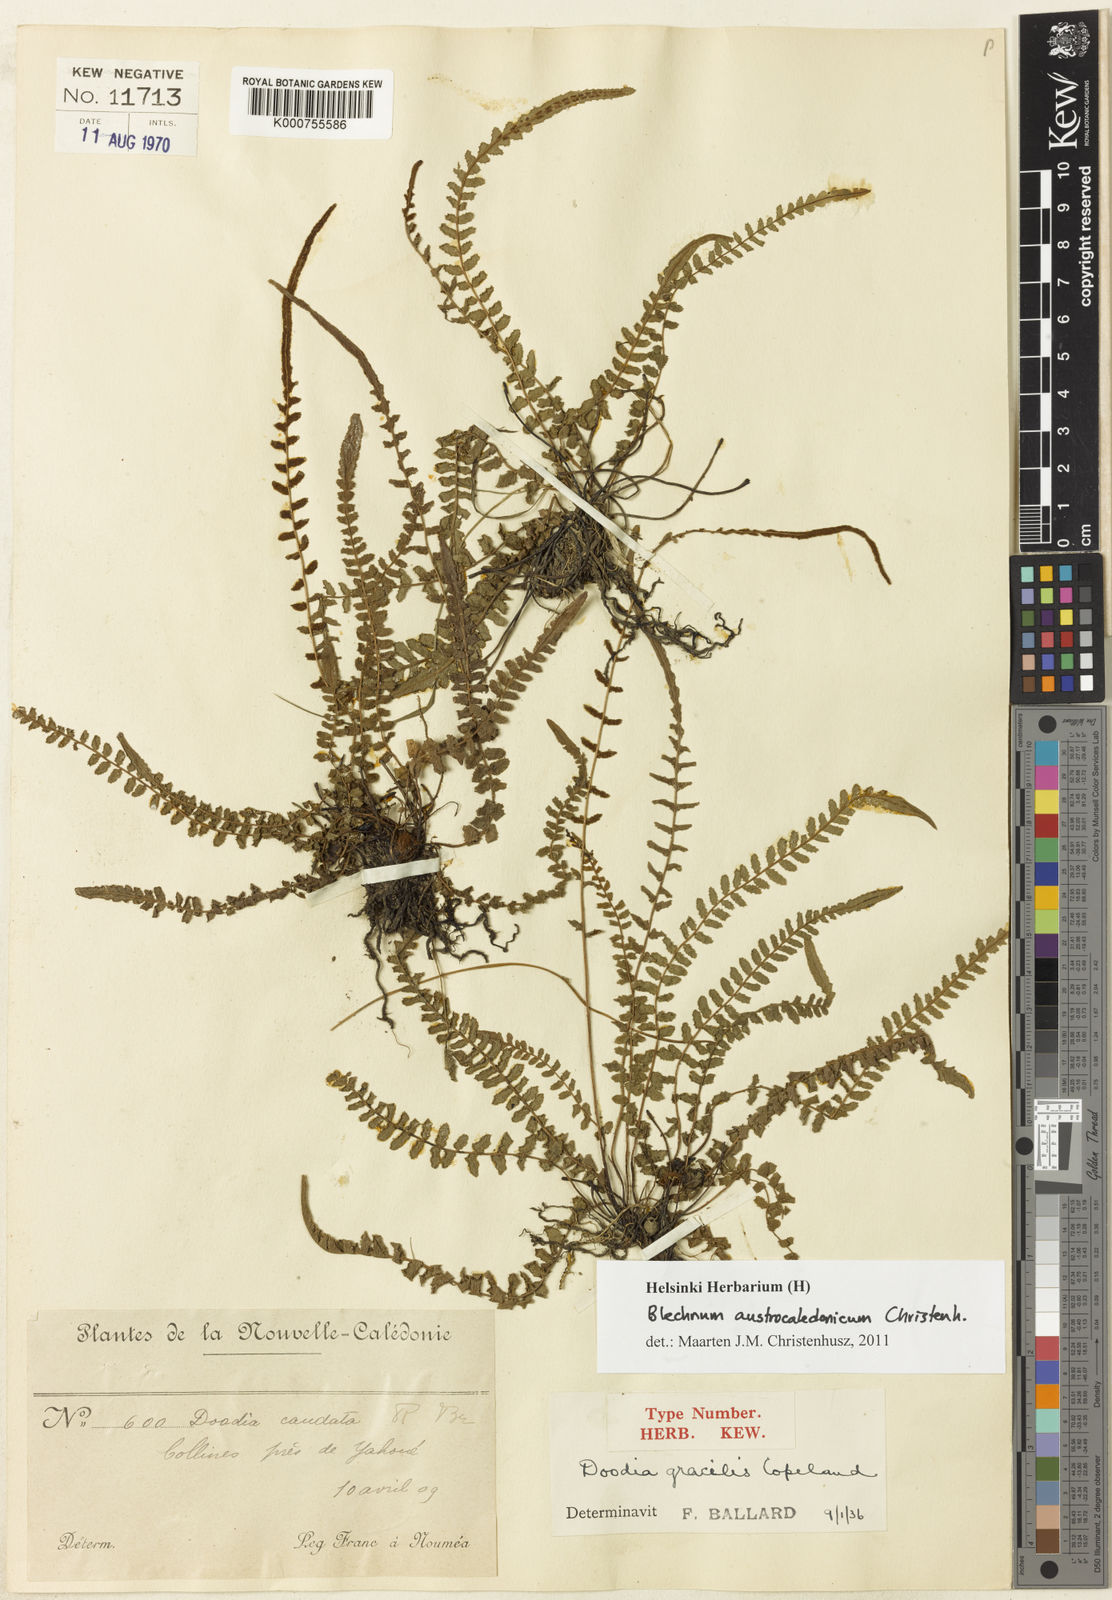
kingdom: Plantae
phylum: Tracheophyta
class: Polypodiopsida
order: Polypodiales
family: Blechnaceae
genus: Doodia
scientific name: Doodia gracilis
